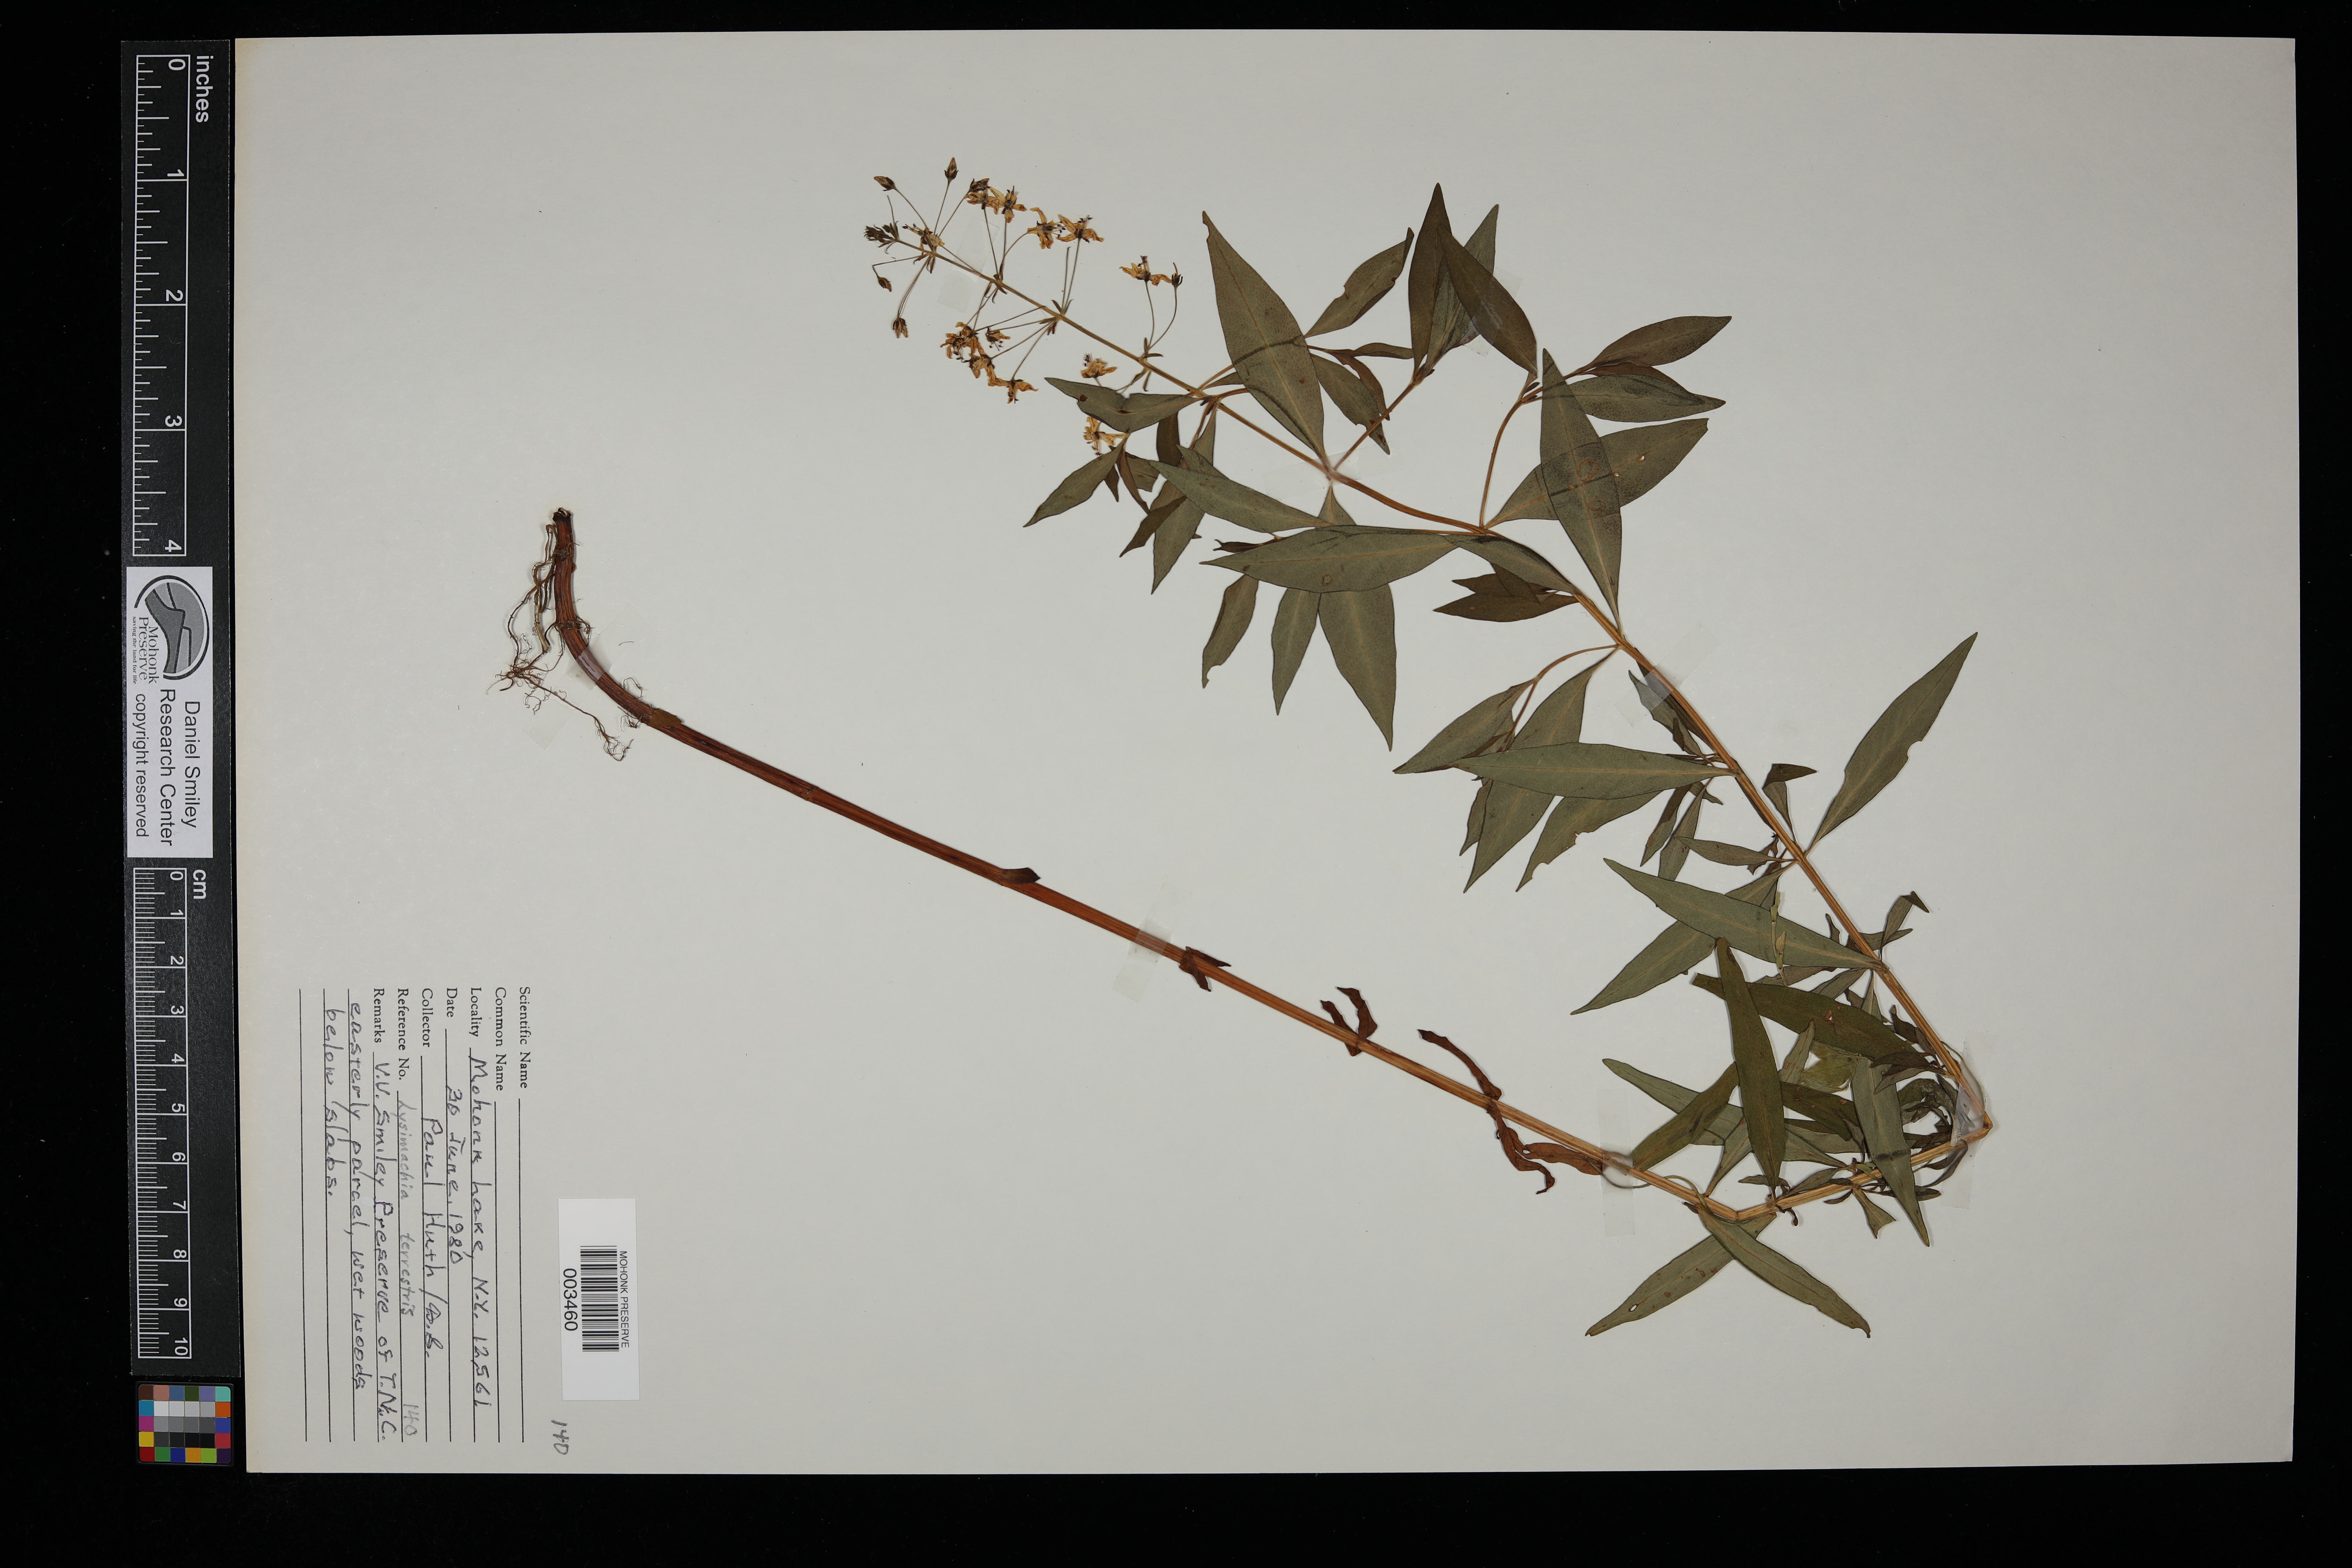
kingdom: Plantae
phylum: Tracheophyta
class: Magnoliopsida
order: Ericales
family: Primulaceae
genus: Lysimachia
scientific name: Lysimachia terrestris
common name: Lake loosestrife
